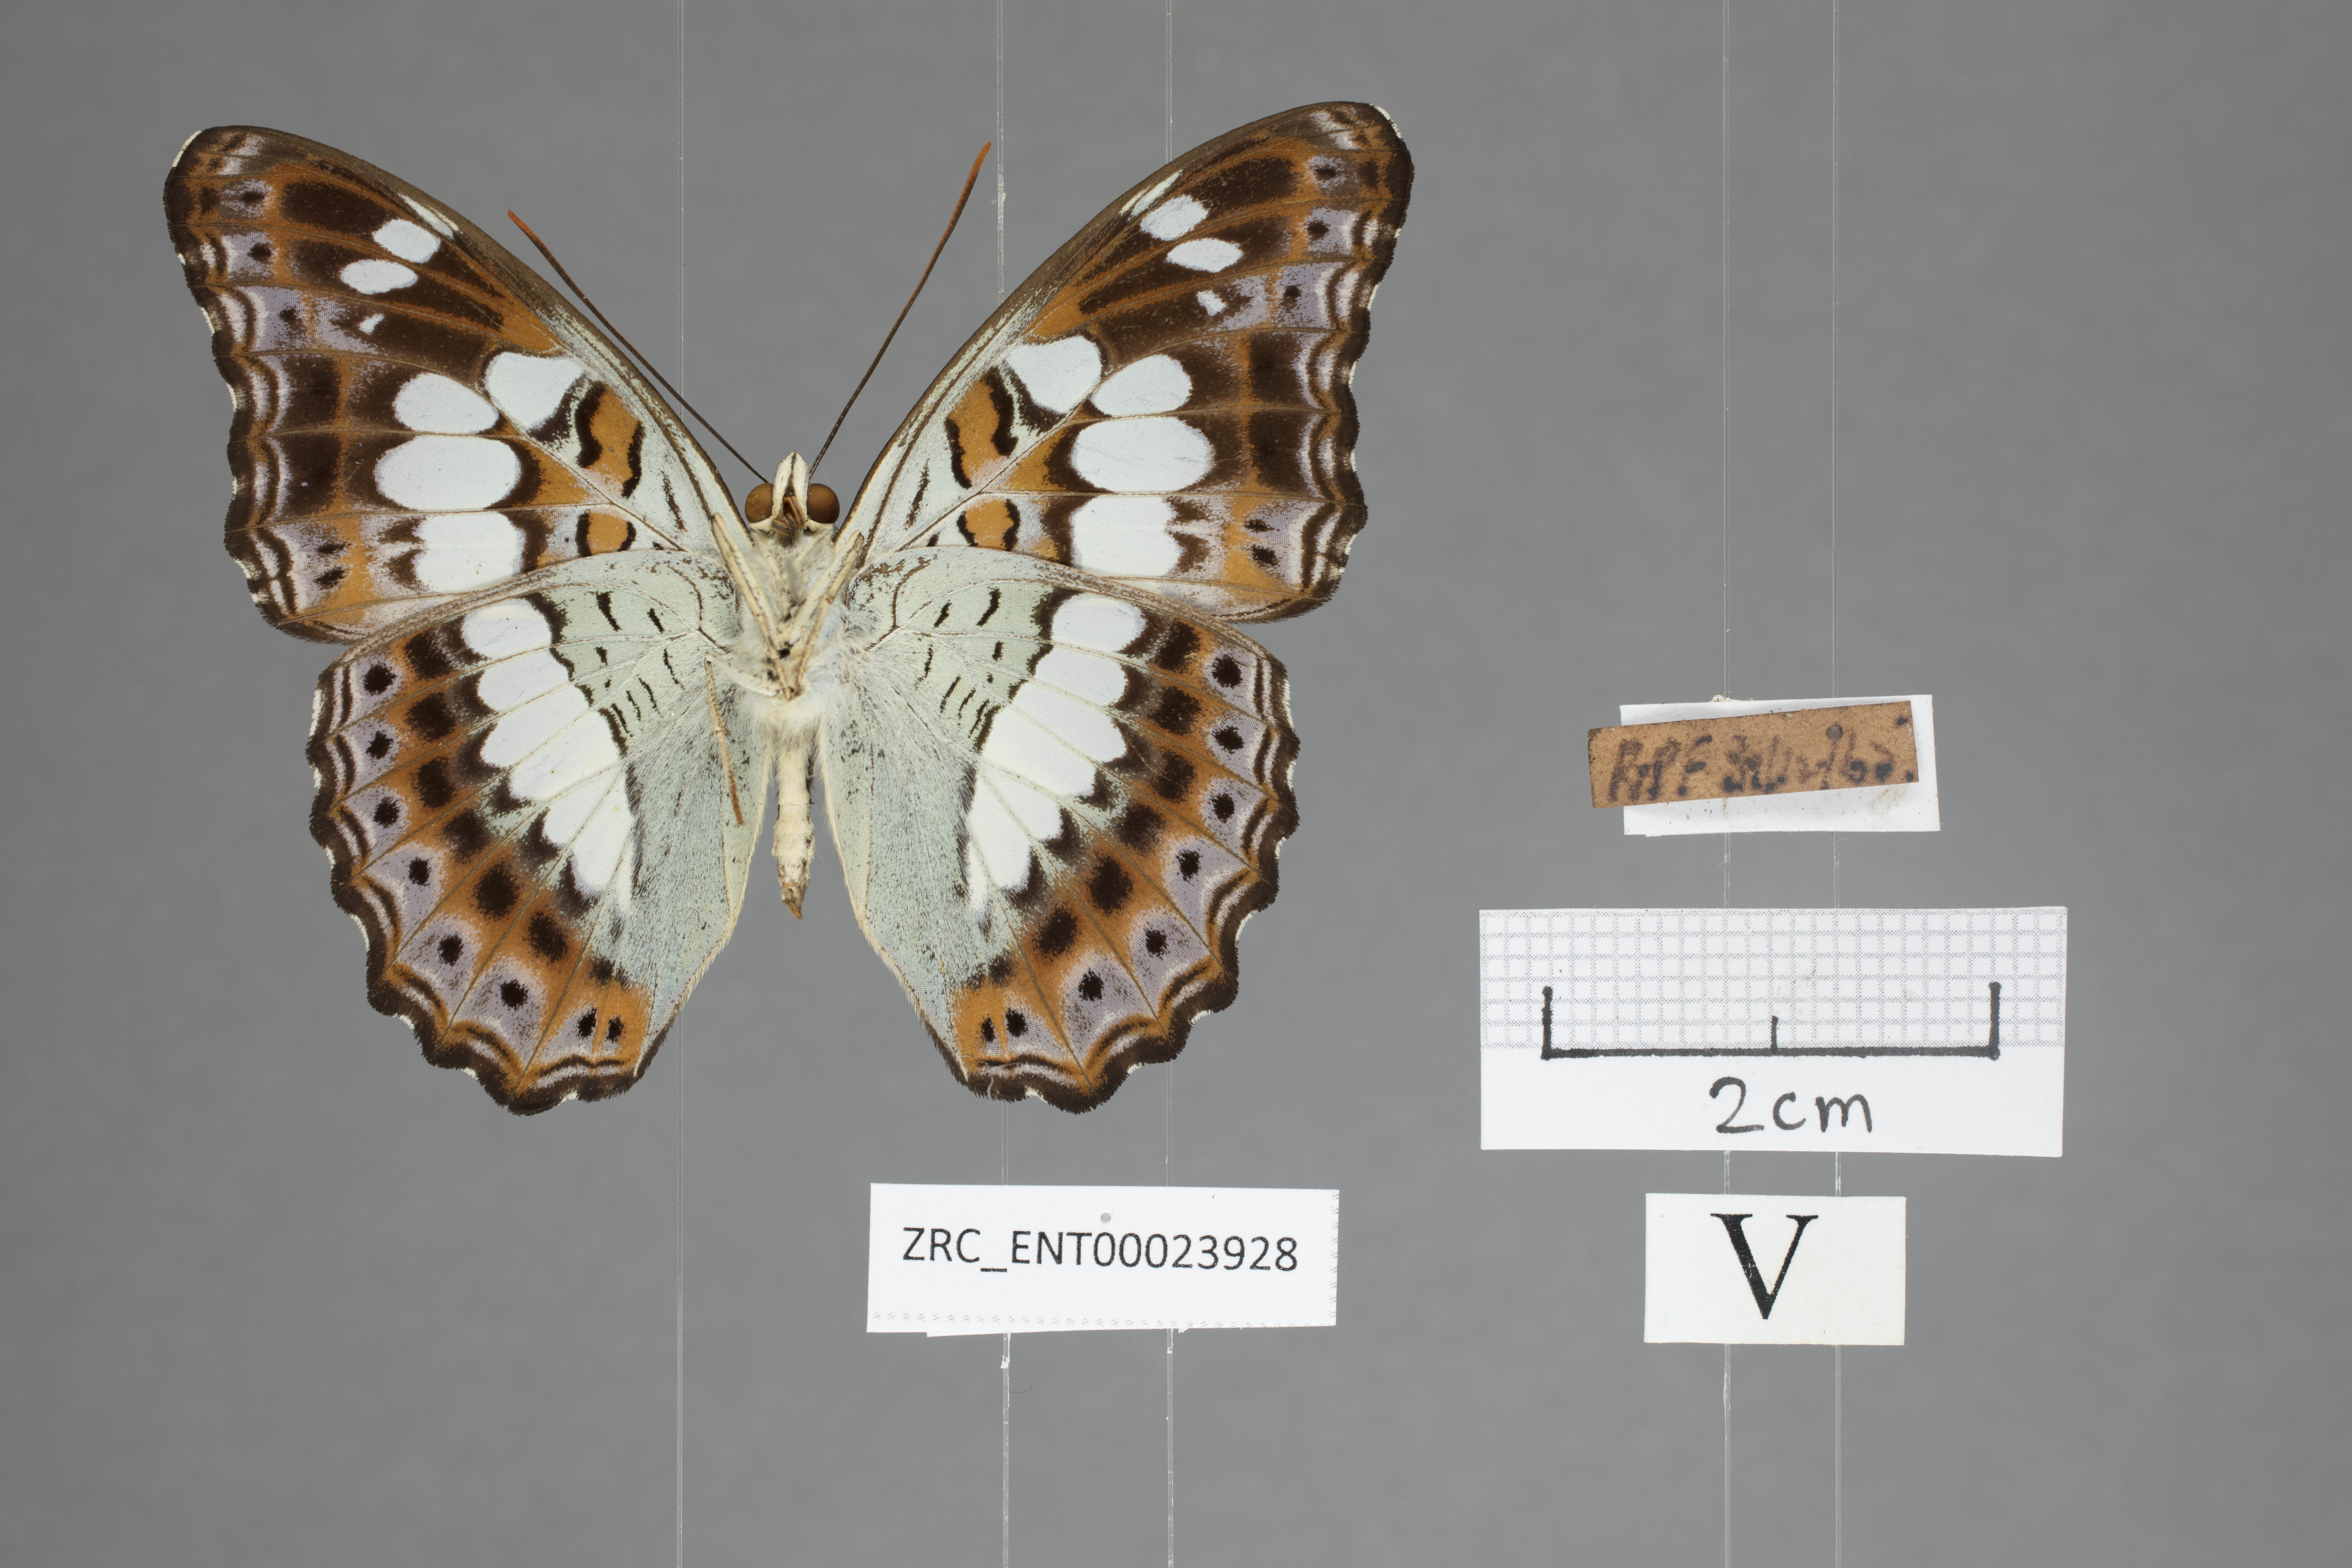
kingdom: Animalia
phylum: Arthropoda
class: Insecta
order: Lepidoptera
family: Nymphalidae
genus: Limenitis
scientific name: Limenitis Moduza procris
